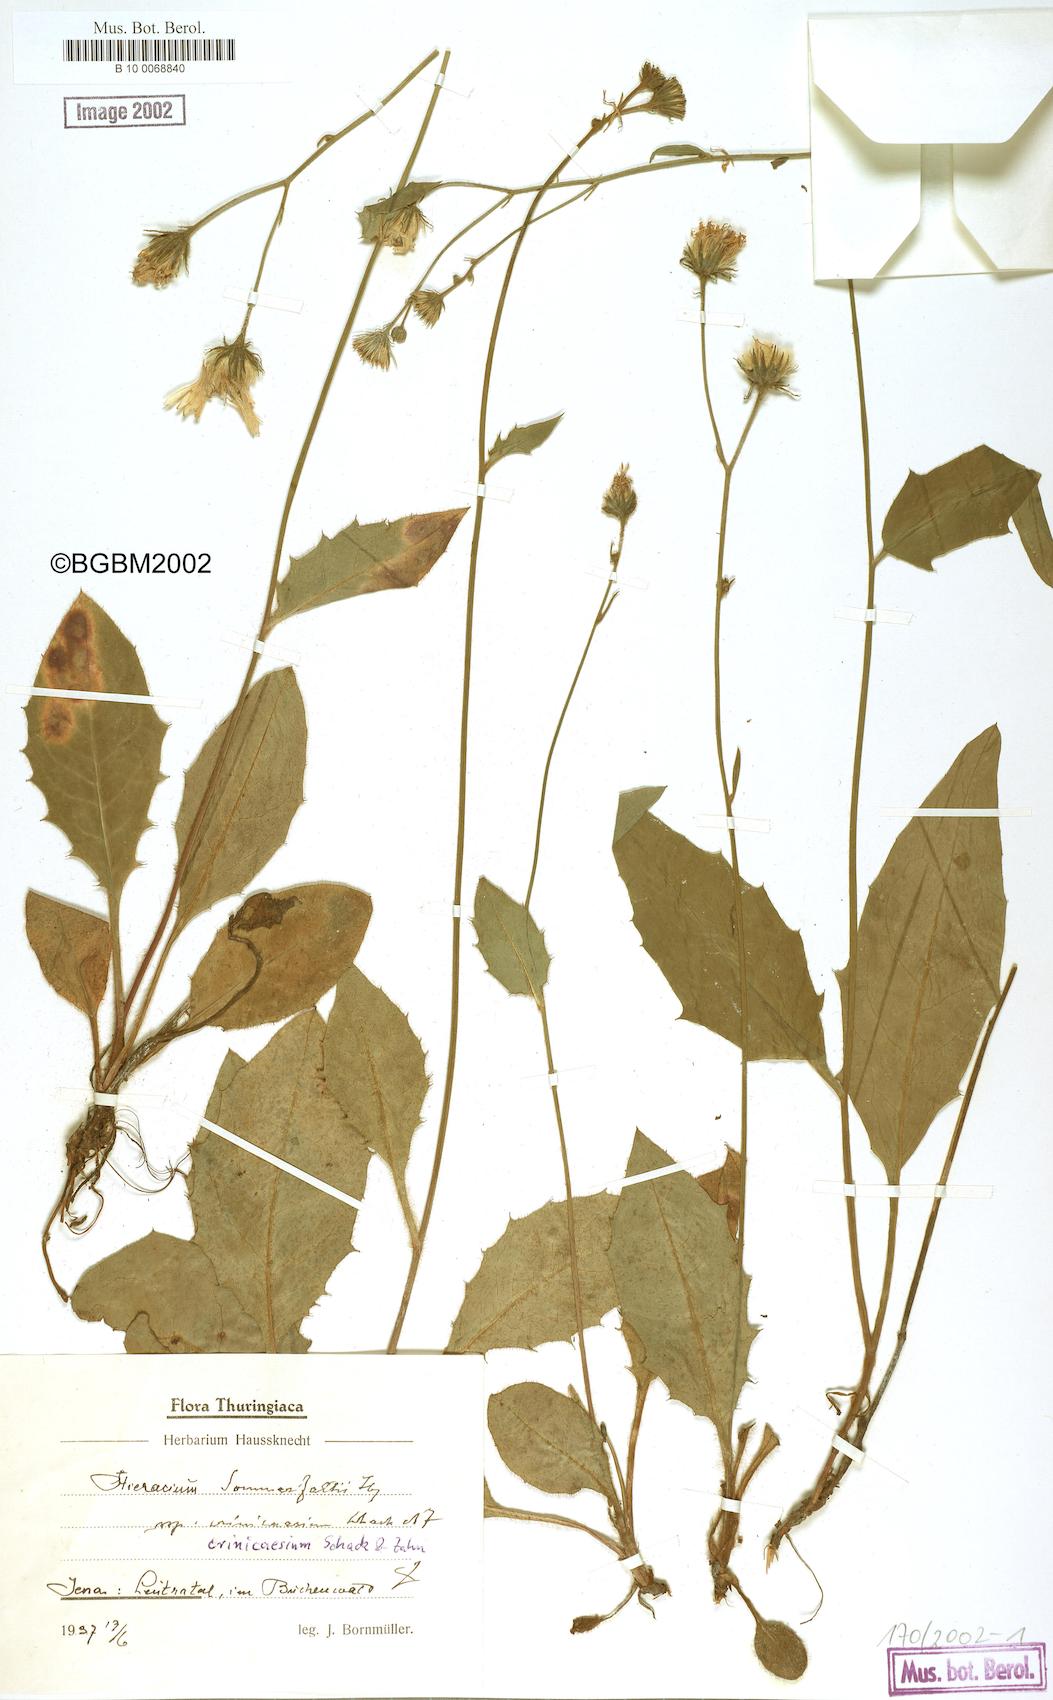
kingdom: Plantae
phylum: Tracheophyta
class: Magnoliopsida
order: Asterales
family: Asteraceae
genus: Hieracium
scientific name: Hieracium hypochoeroides
